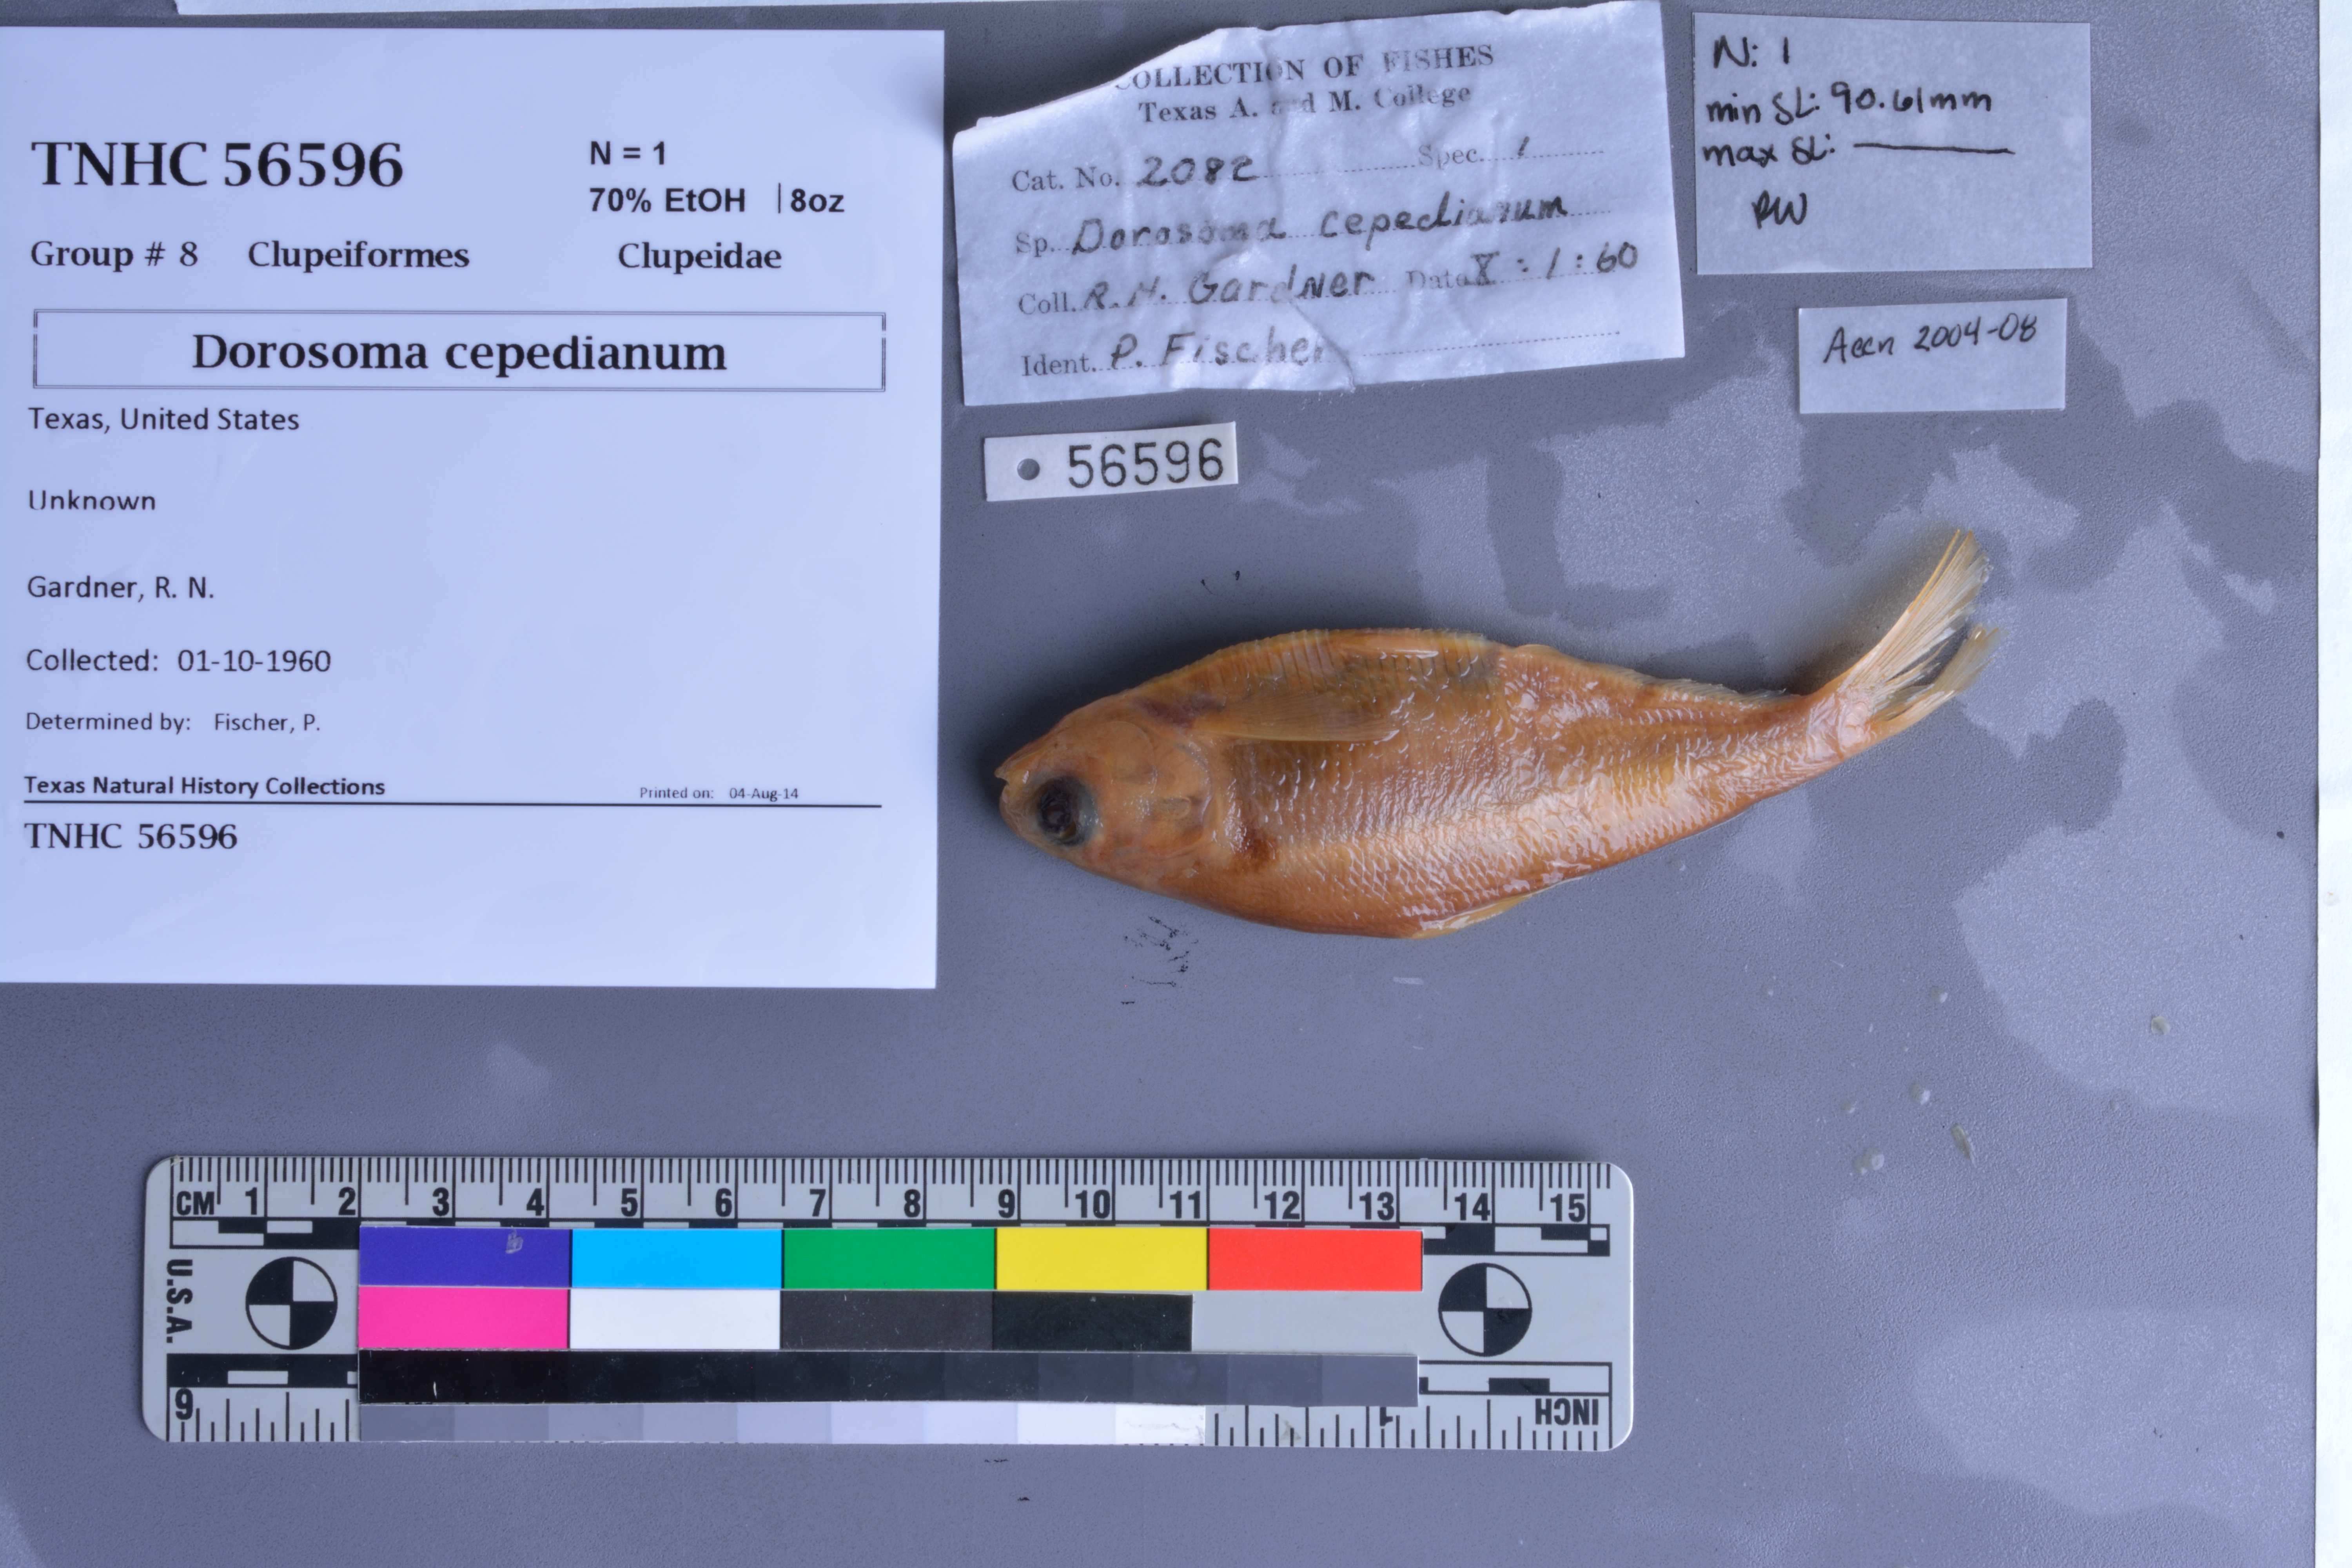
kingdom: Animalia
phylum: Chordata
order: Clupeiformes
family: Clupeidae
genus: Dorosoma
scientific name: Dorosoma cepedianum
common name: Gizzard shad
